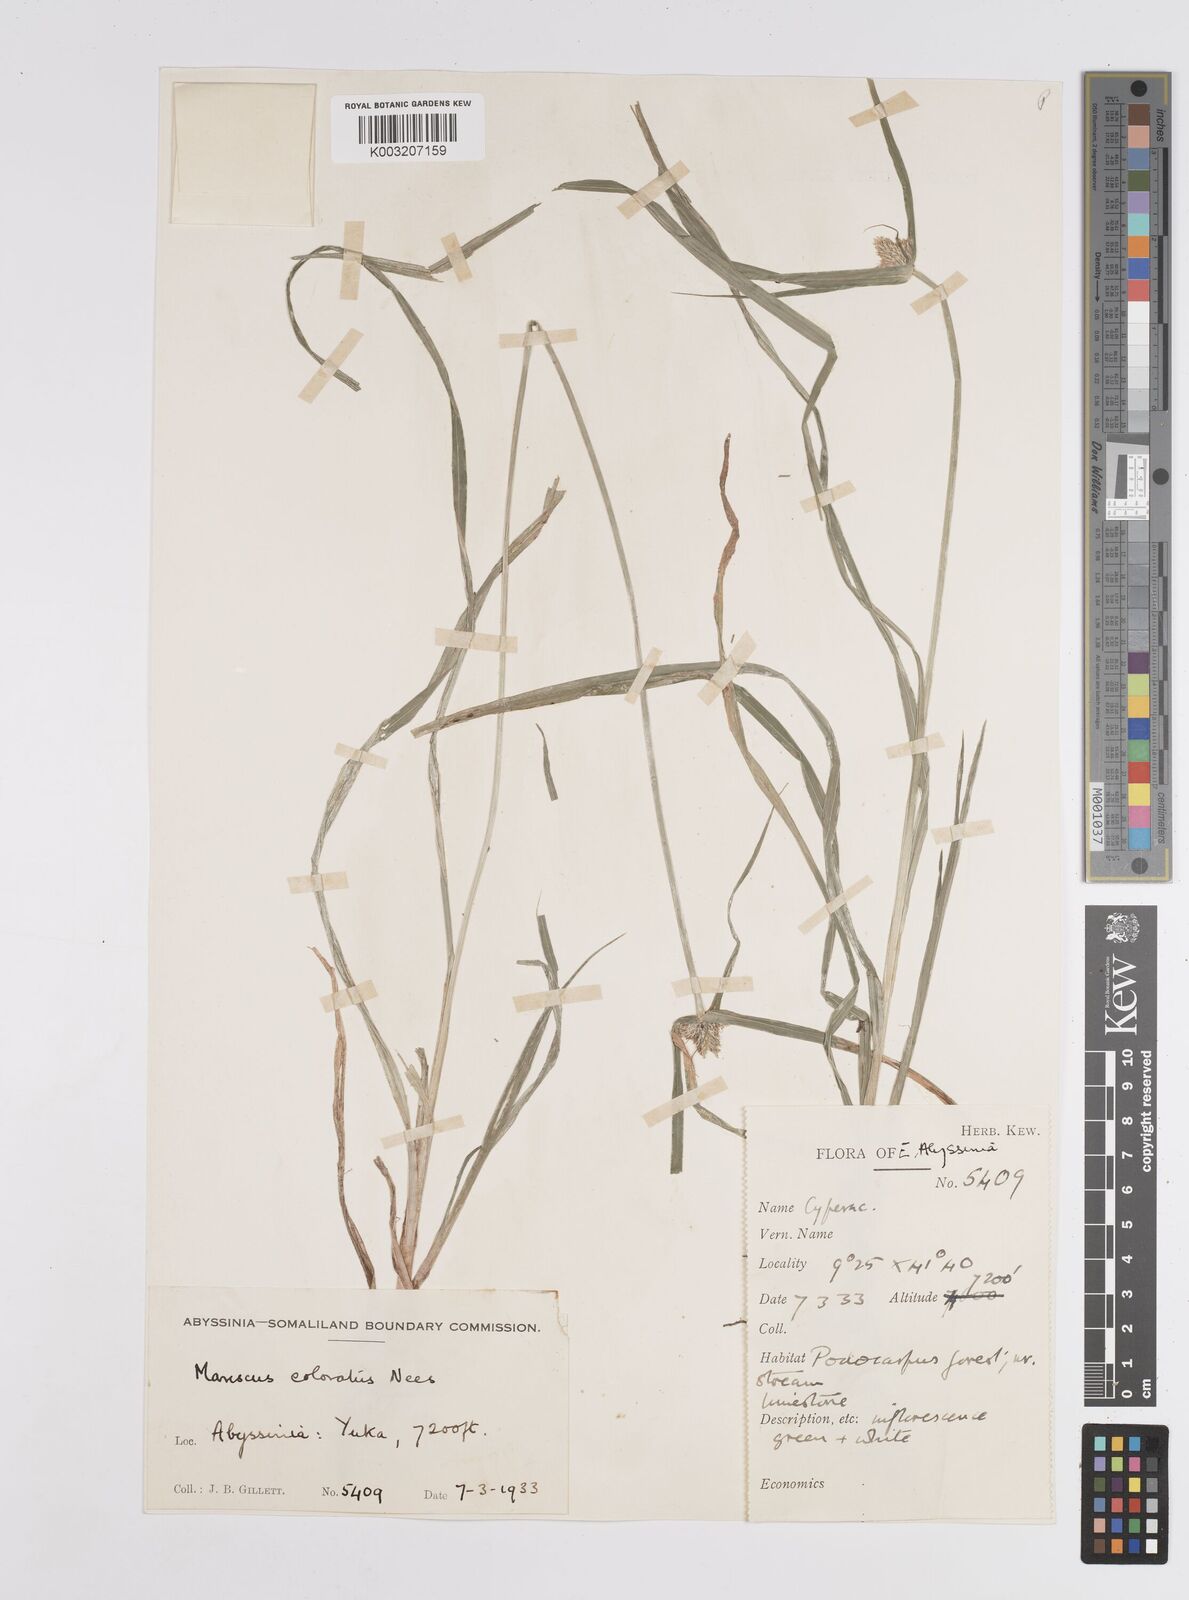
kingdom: Plantae
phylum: Tracheophyta
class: Liliopsida
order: Poales
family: Cyperaceae
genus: Cyperus
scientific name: Cyperus
